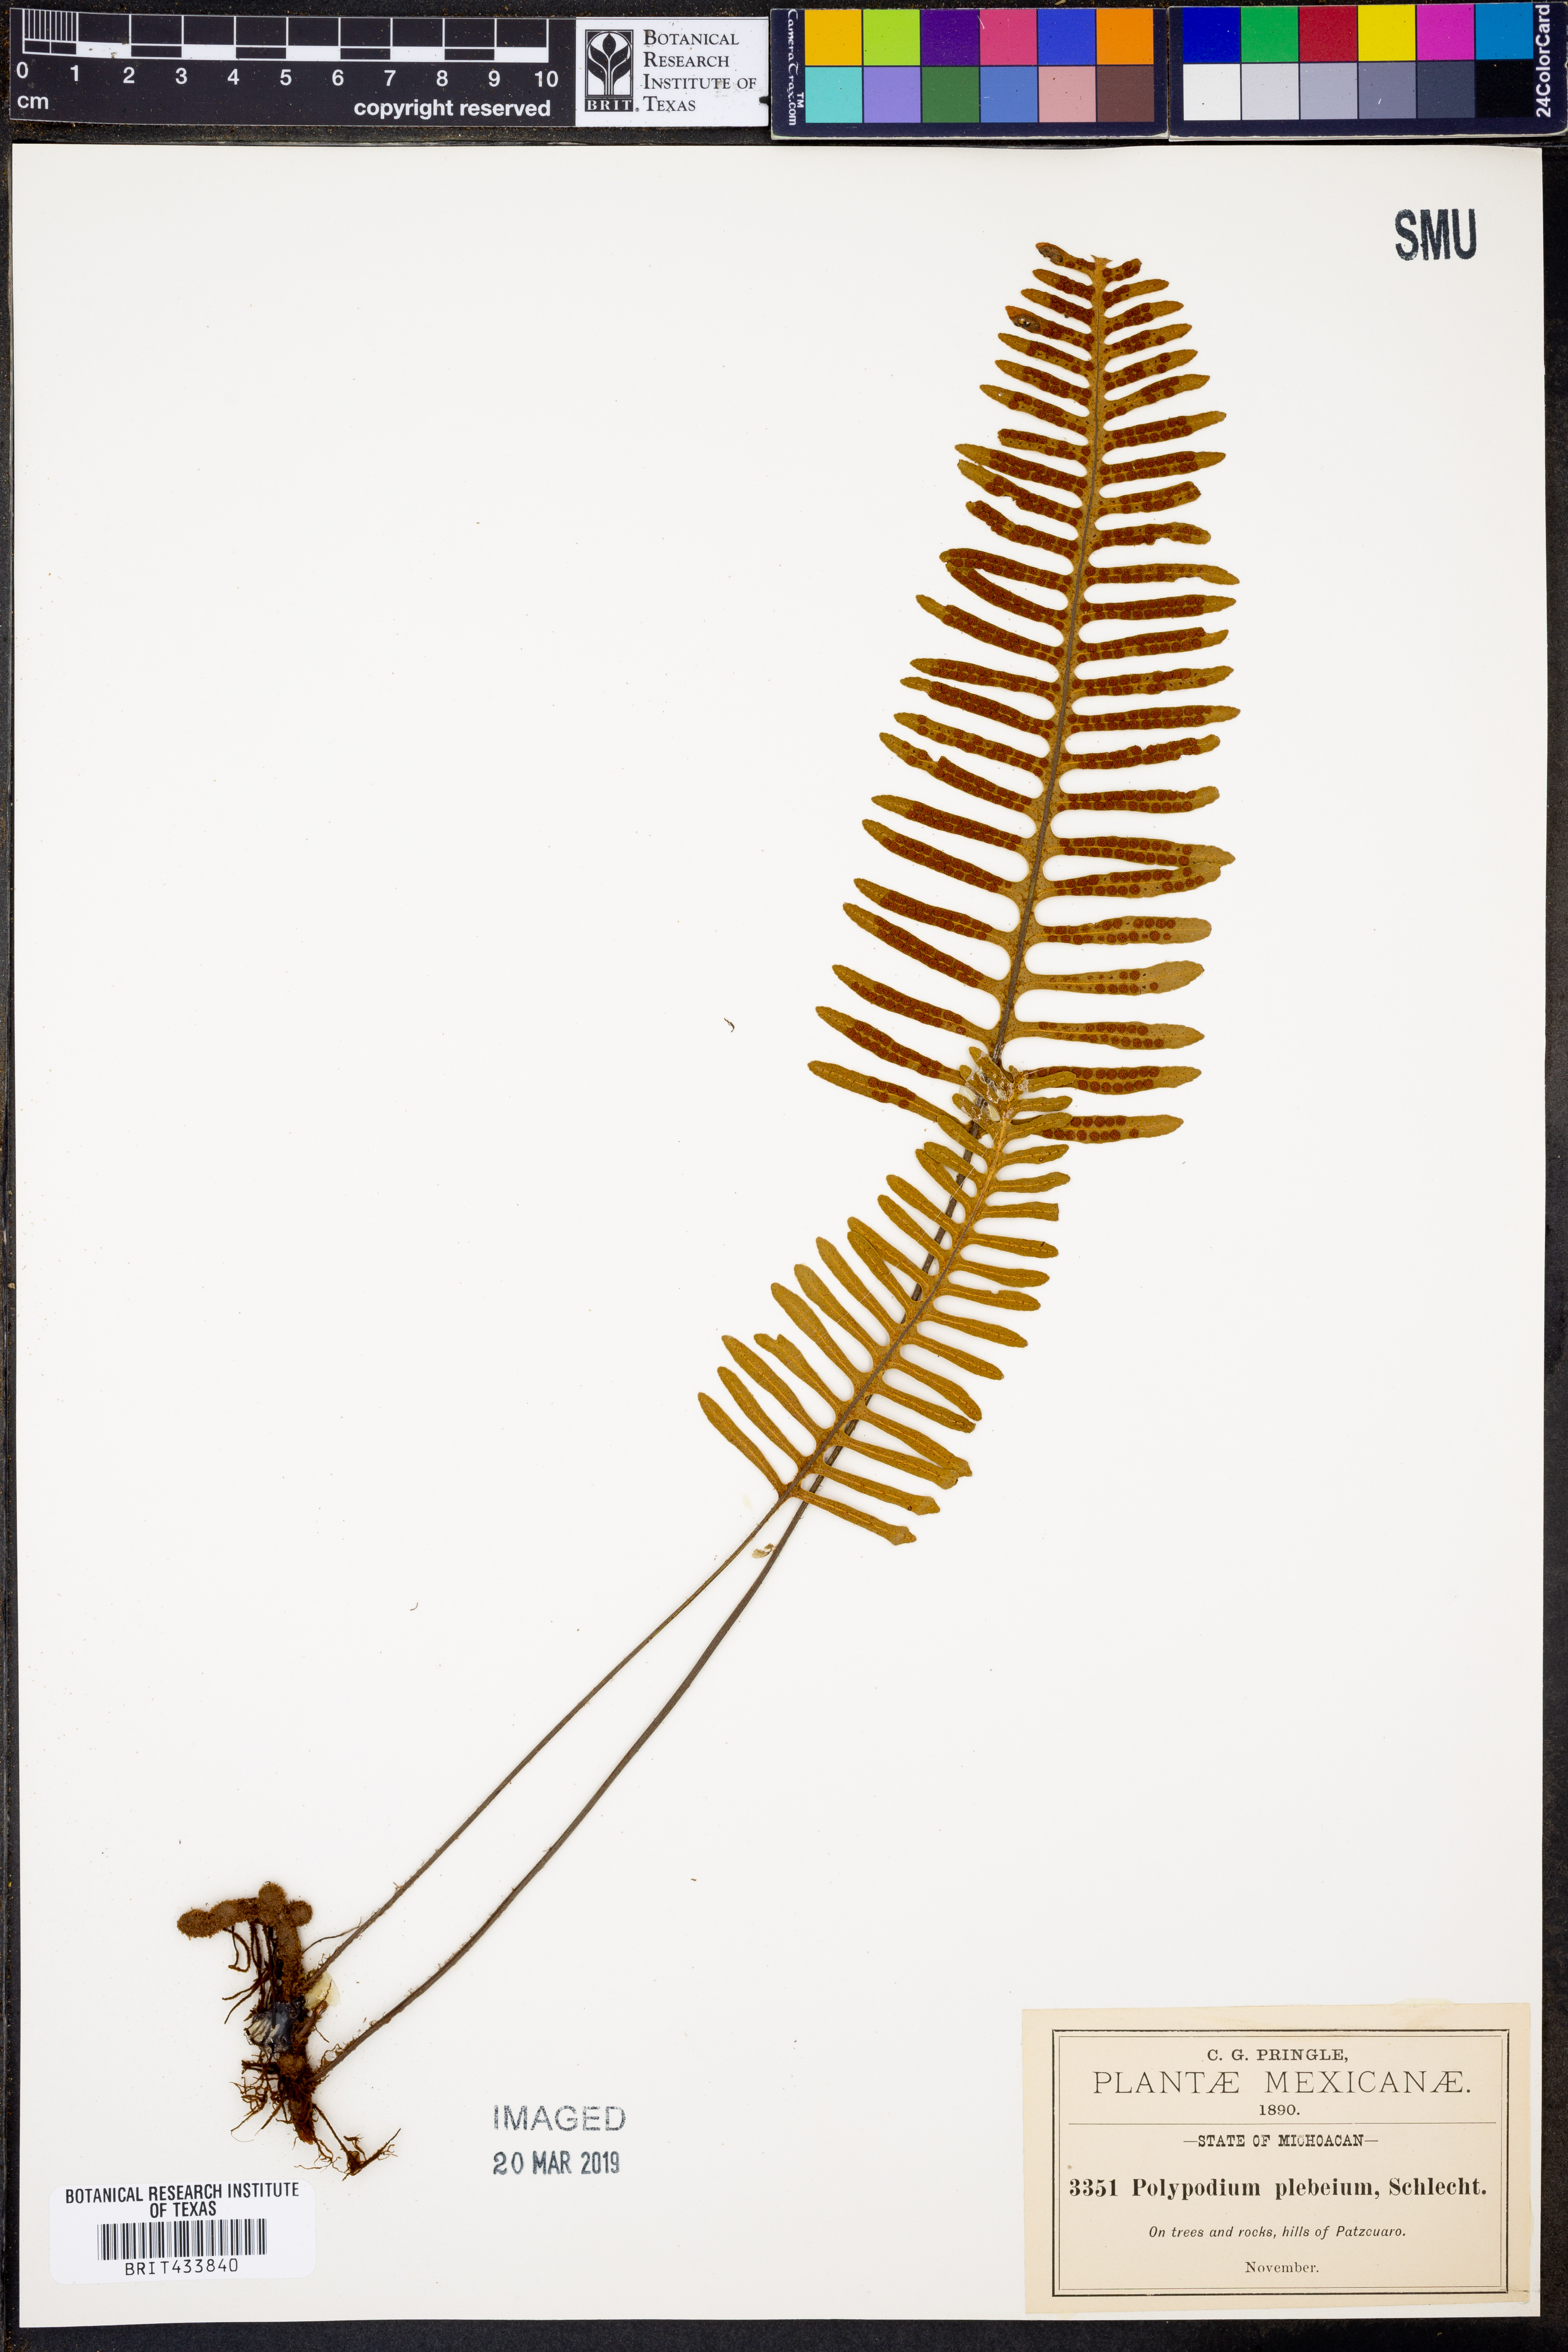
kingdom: Plantae
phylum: Tracheophyta
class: Polypodiopsida
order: Polypodiales
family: Polypodiaceae
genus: Pleopeltis
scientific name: Pleopeltis plebeia
